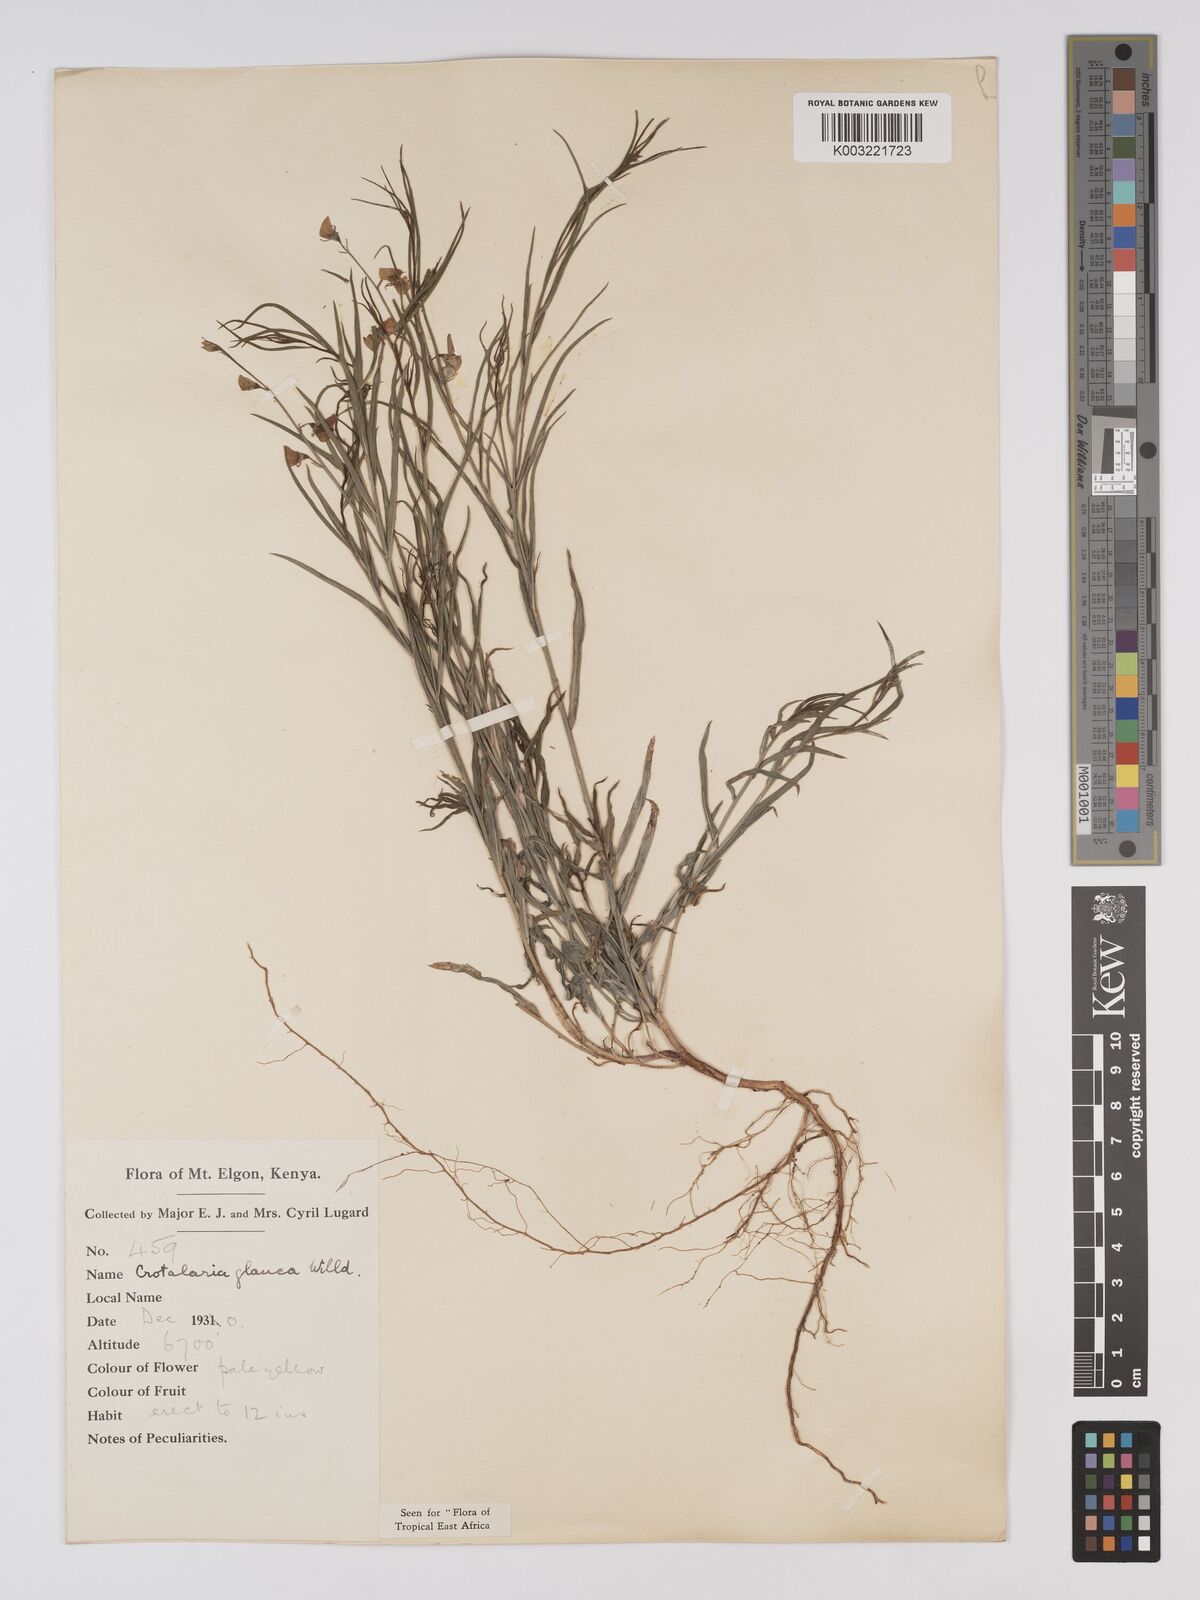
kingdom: Plantae
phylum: Tracheophyta
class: Magnoliopsida
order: Fabales
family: Fabaceae
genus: Crotalaria
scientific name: Crotalaria glauca
